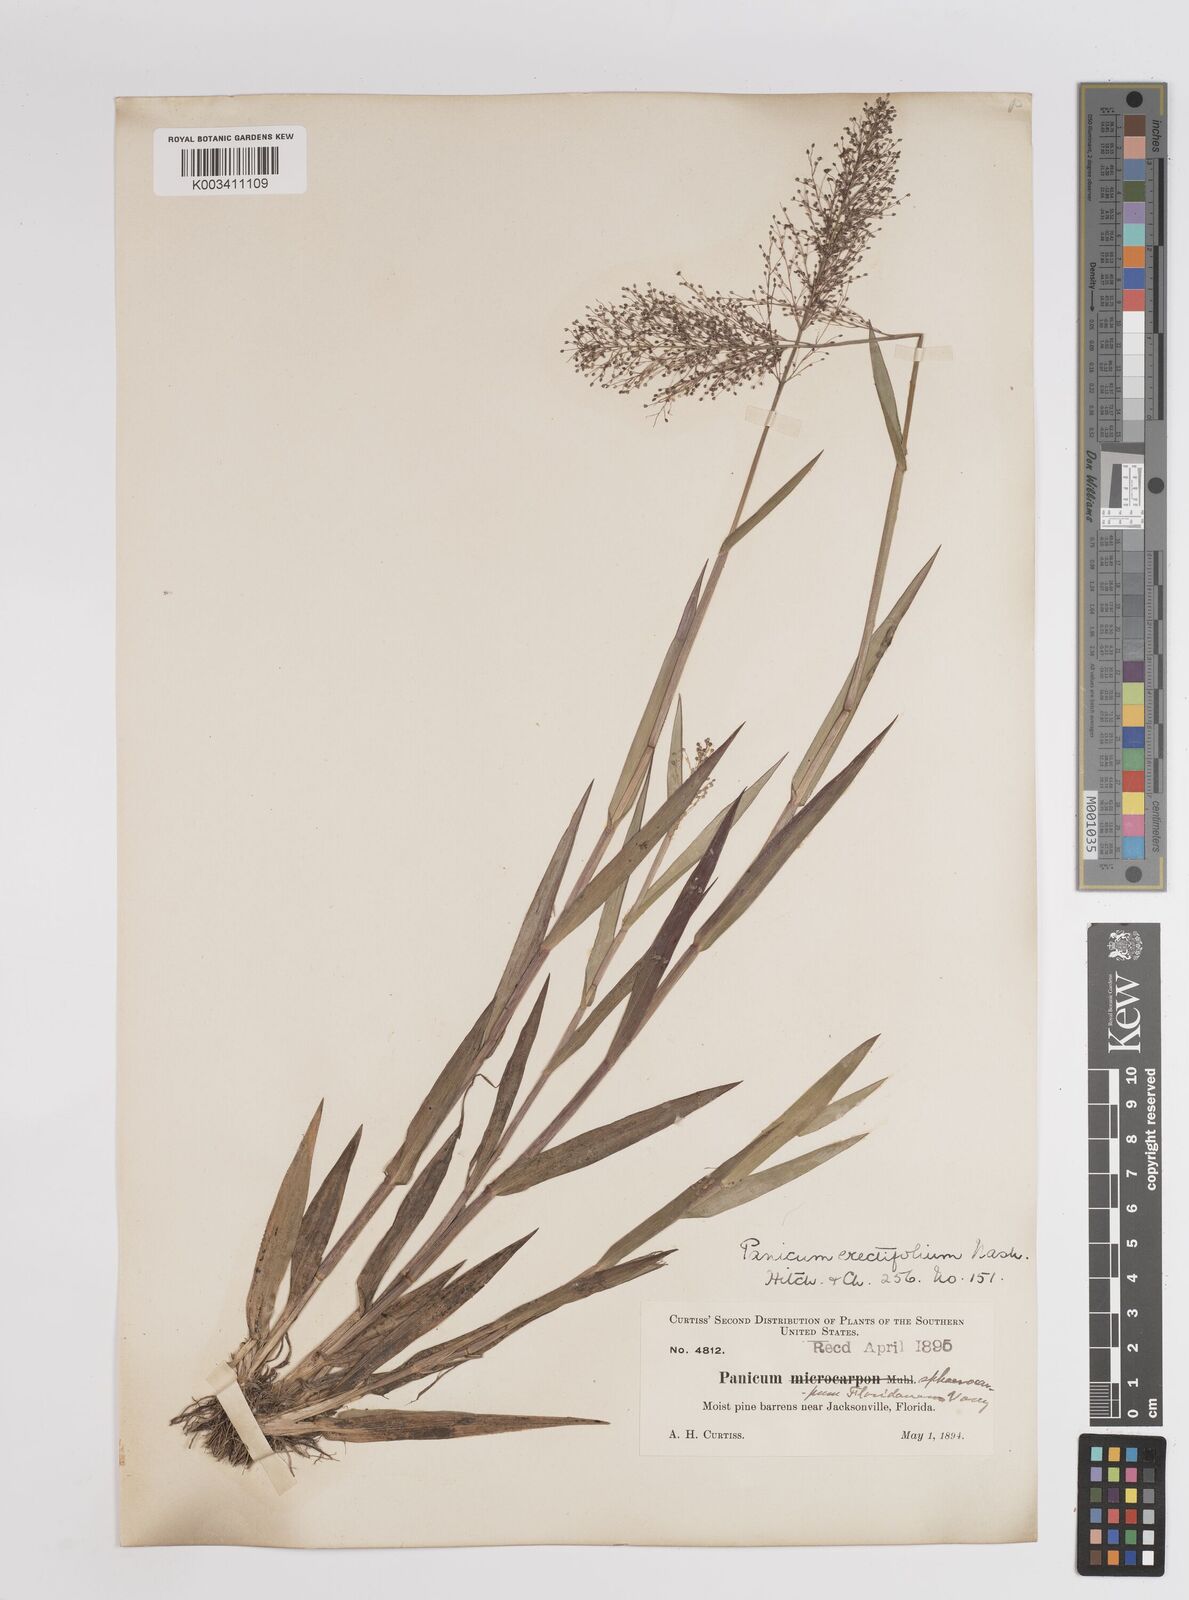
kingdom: Plantae
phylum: Tracheophyta
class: Liliopsida
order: Poales
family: Poaceae
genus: Dichanthelium
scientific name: Dichanthelium erectifolium
